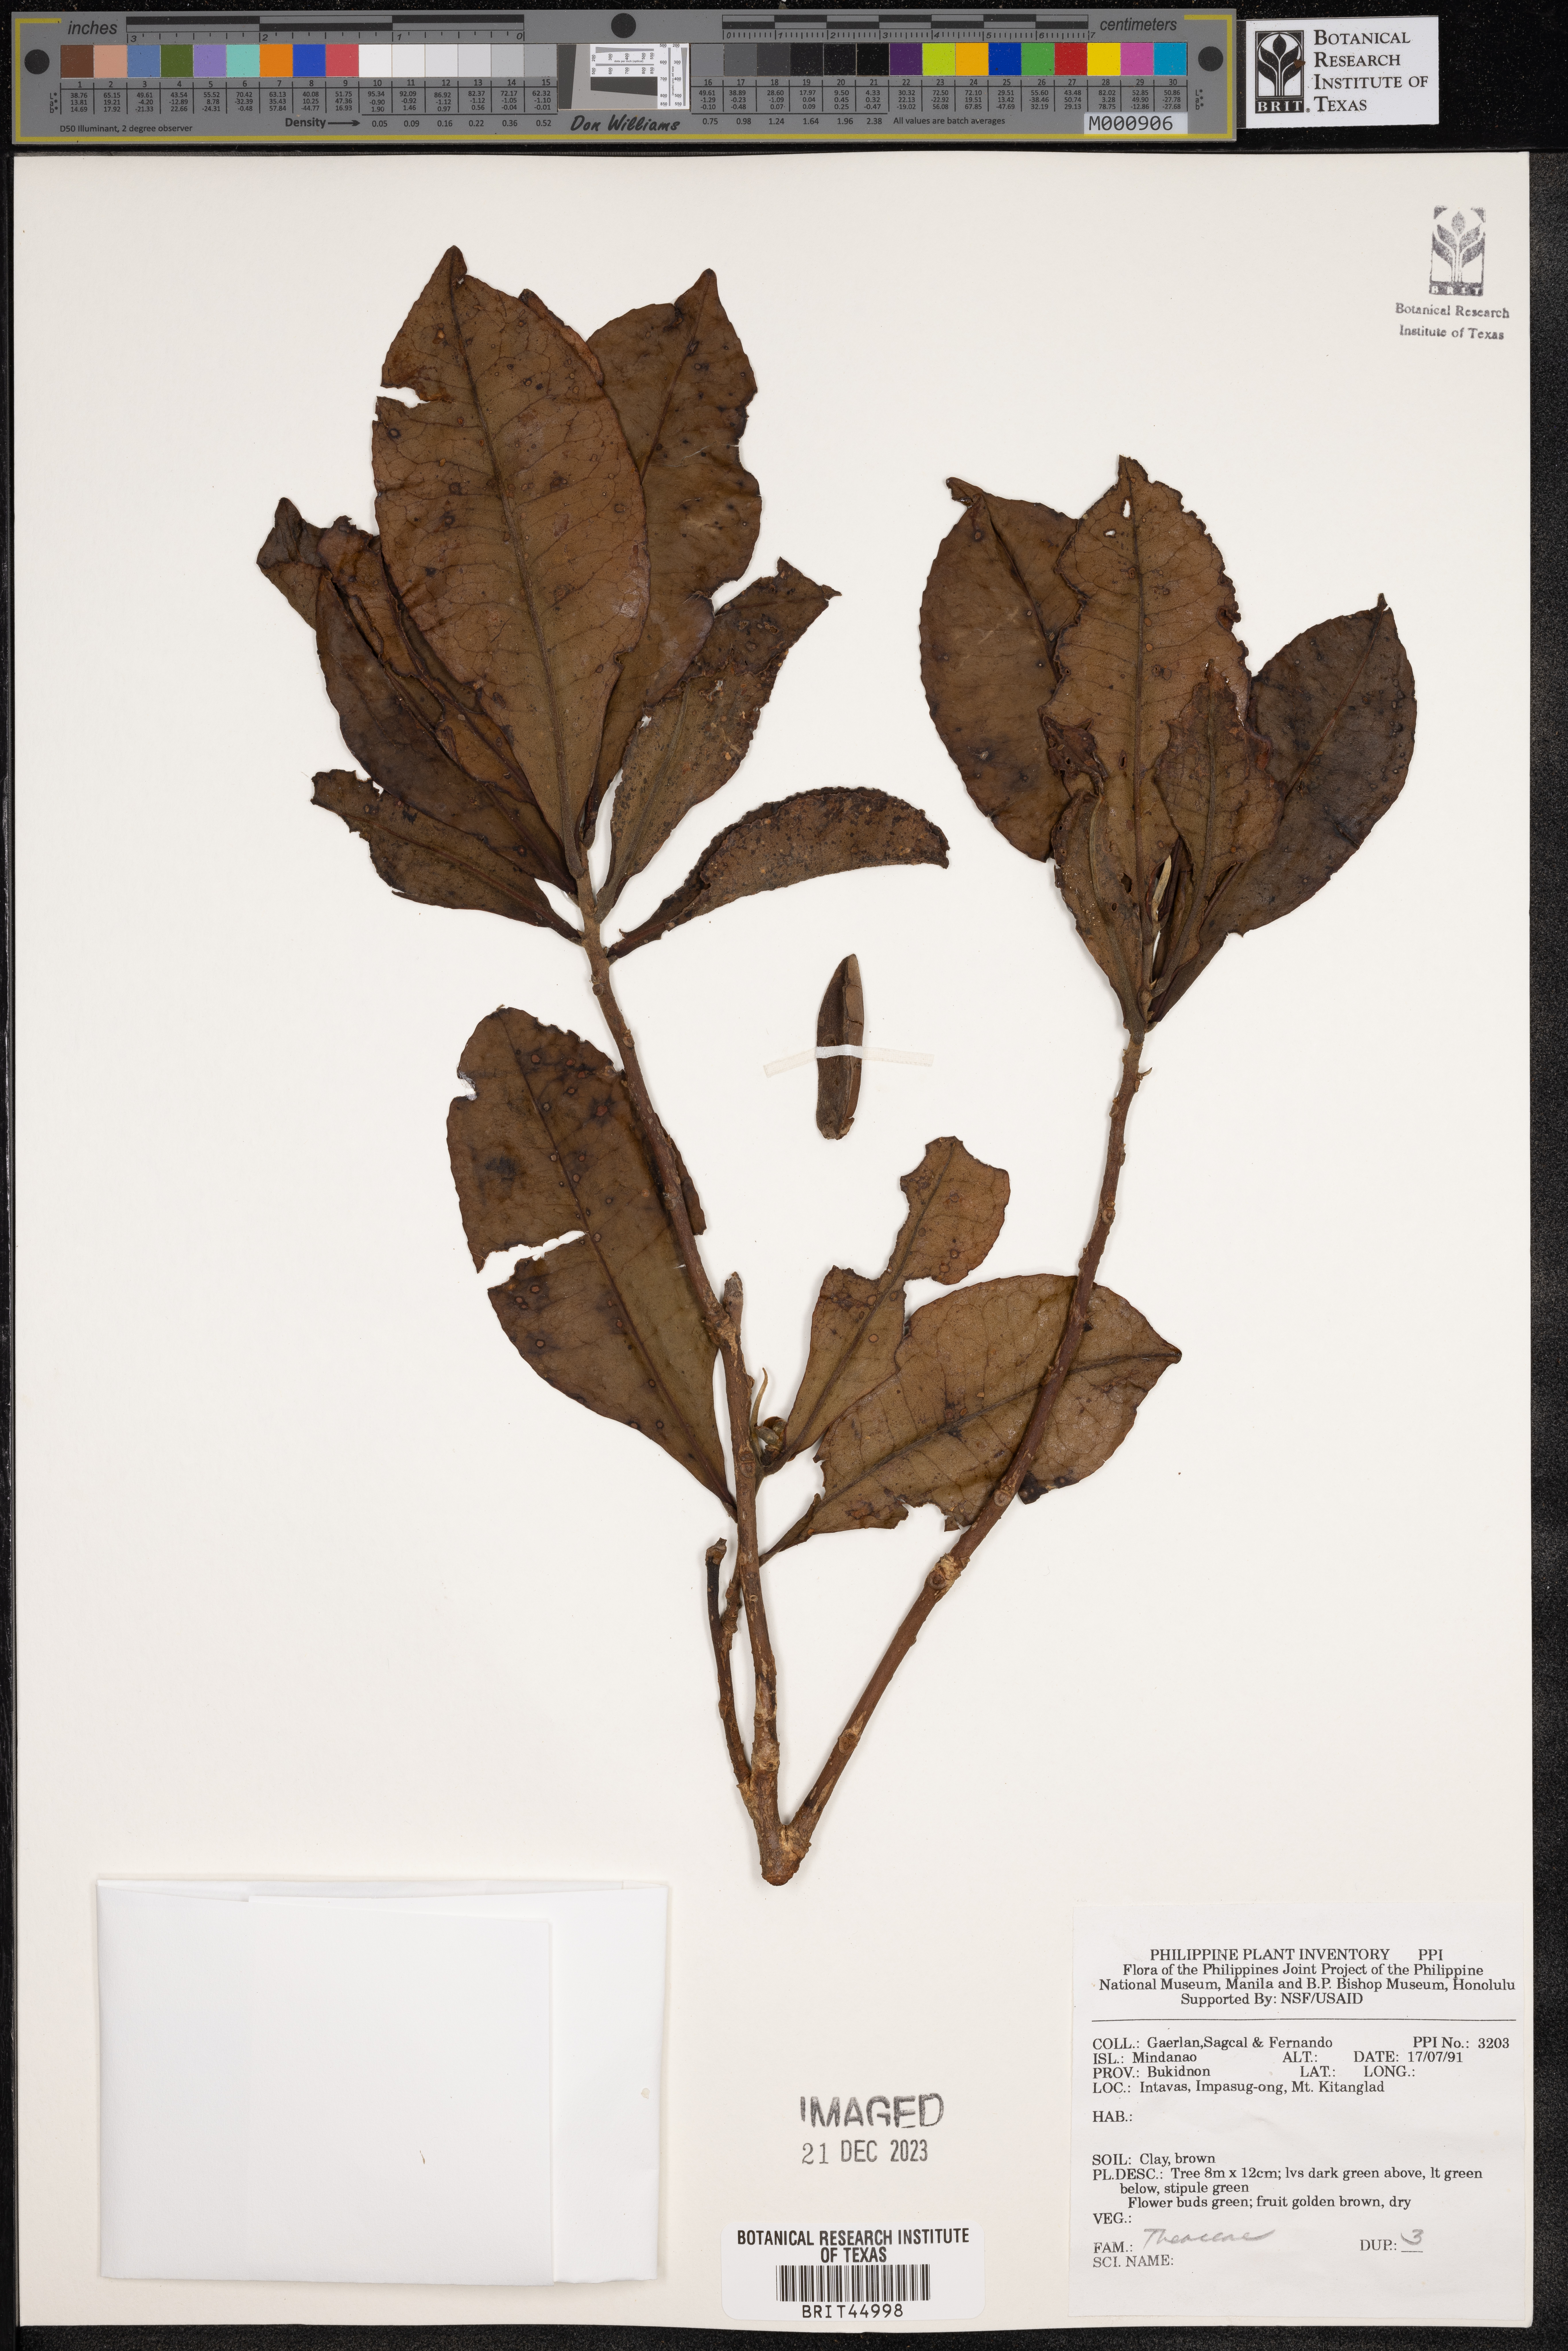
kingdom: Plantae
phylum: Tracheophyta
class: Magnoliopsida
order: Ericales
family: Theaceae
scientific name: Theaceae
